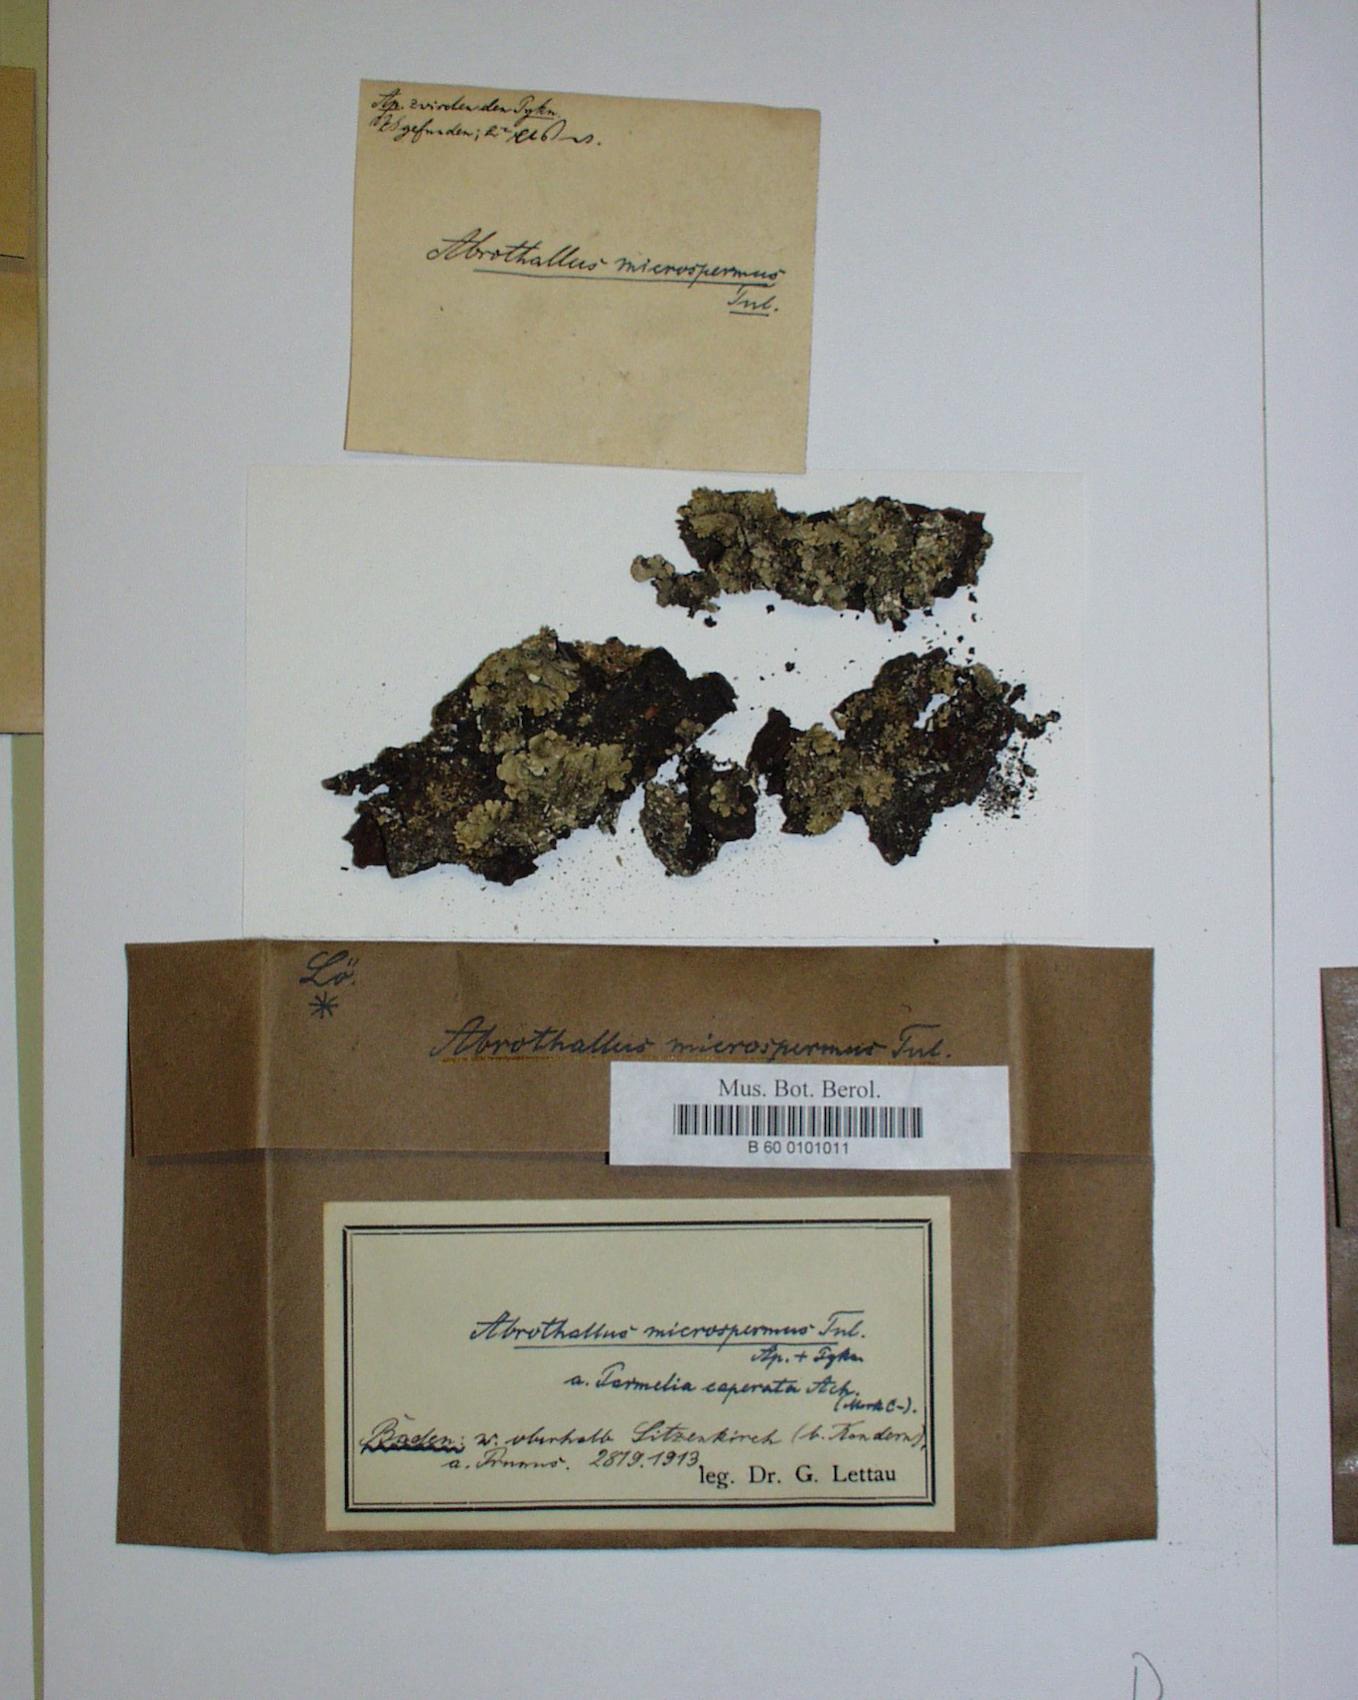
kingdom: Fungi
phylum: Ascomycota
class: Dothideomycetes
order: Abrothallales
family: Abrothallaceae
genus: Abrothallus
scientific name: Abrothallus microspermus
